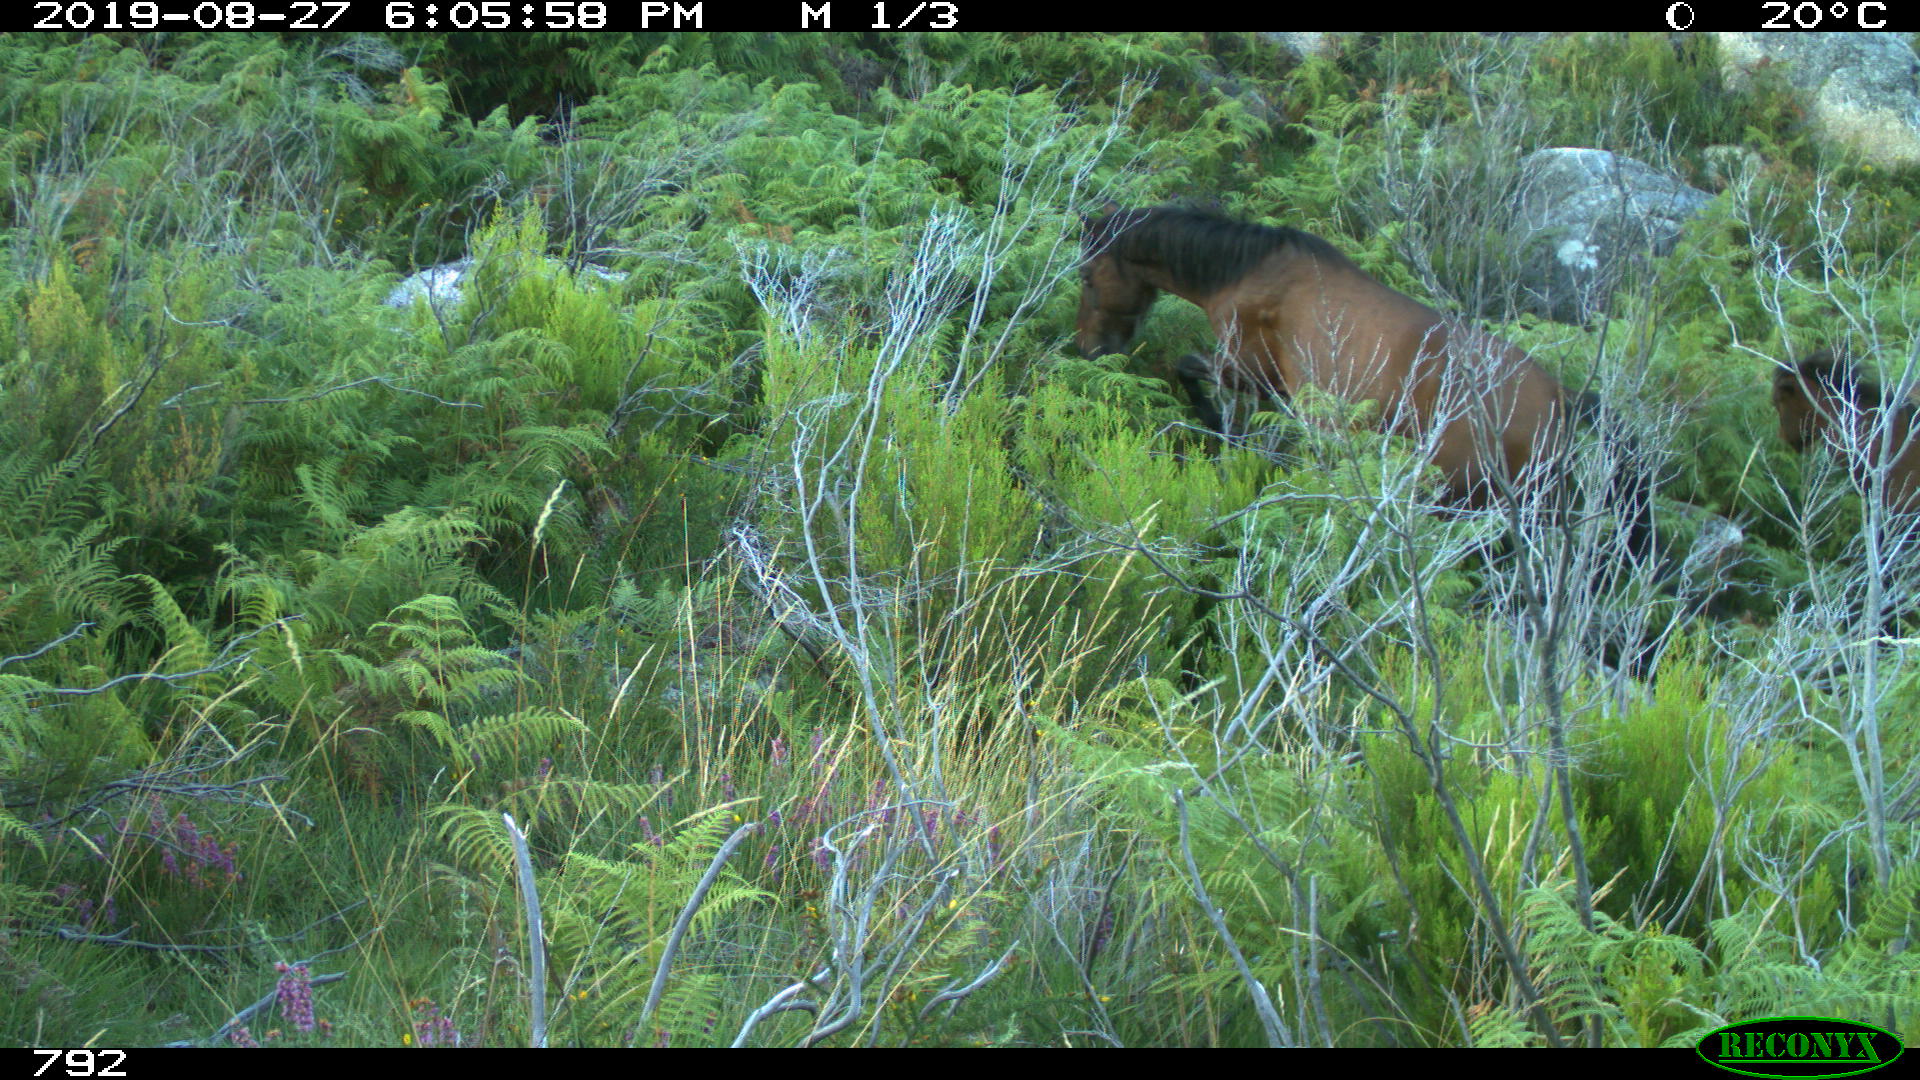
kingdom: Animalia
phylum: Chordata
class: Mammalia
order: Perissodactyla
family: Equidae
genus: Equus
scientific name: Equus caballus
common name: Horse
